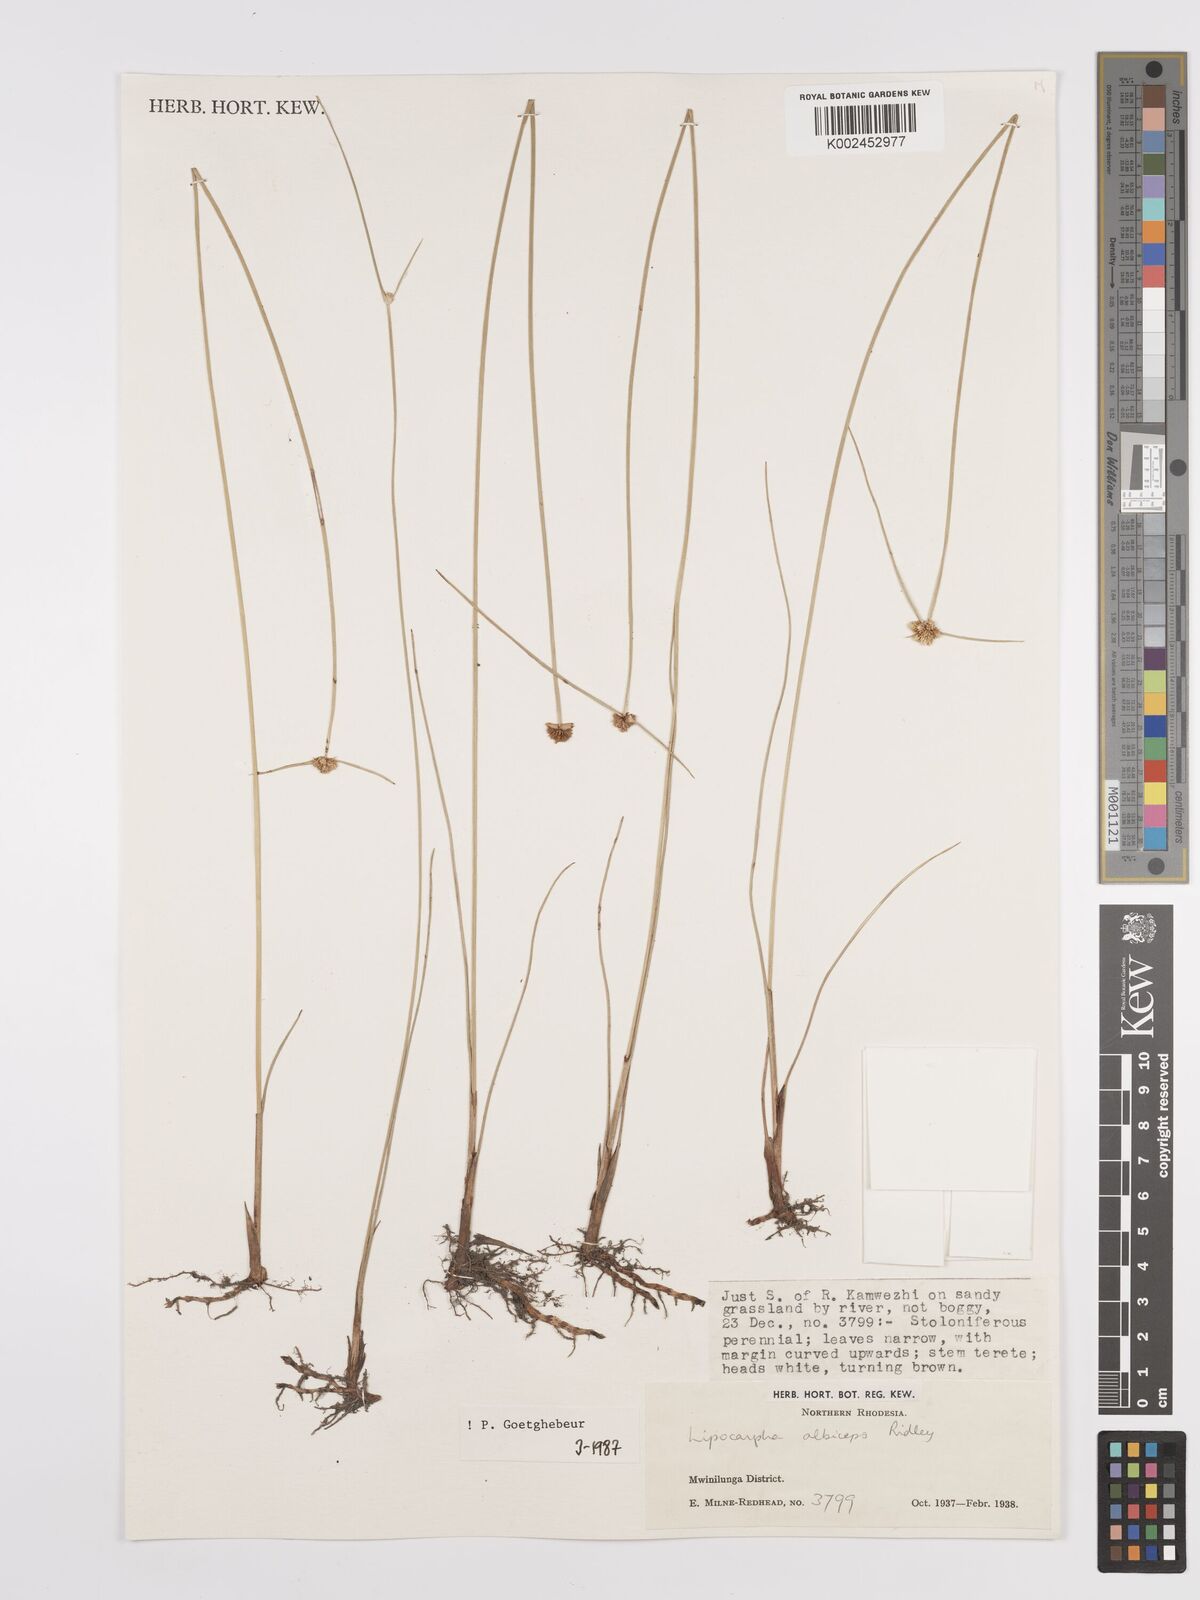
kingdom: Plantae
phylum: Tracheophyta
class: Liliopsida
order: Poales
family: Cyperaceae
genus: Cyperus
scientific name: Cyperus albiceps
